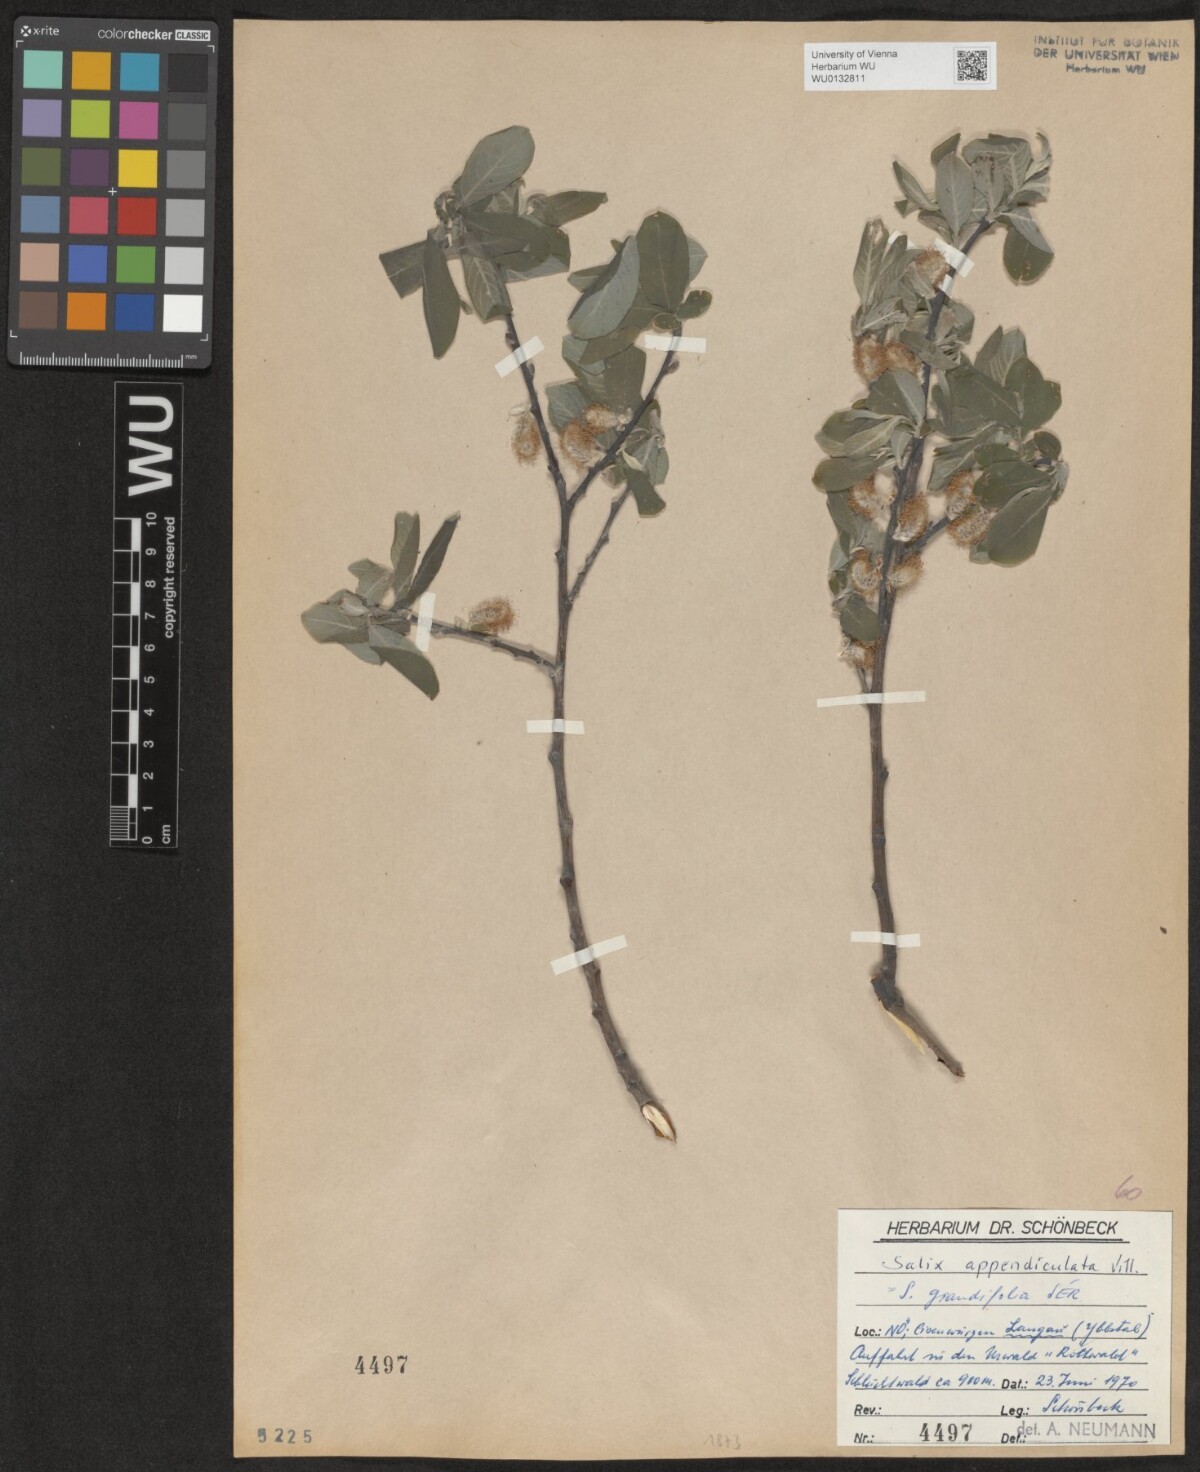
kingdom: Plantae
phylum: Tracheophyta
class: Magnoliopsida
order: Malpighiales
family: Salicaceae
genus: Salix
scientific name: Salix appendiculata
